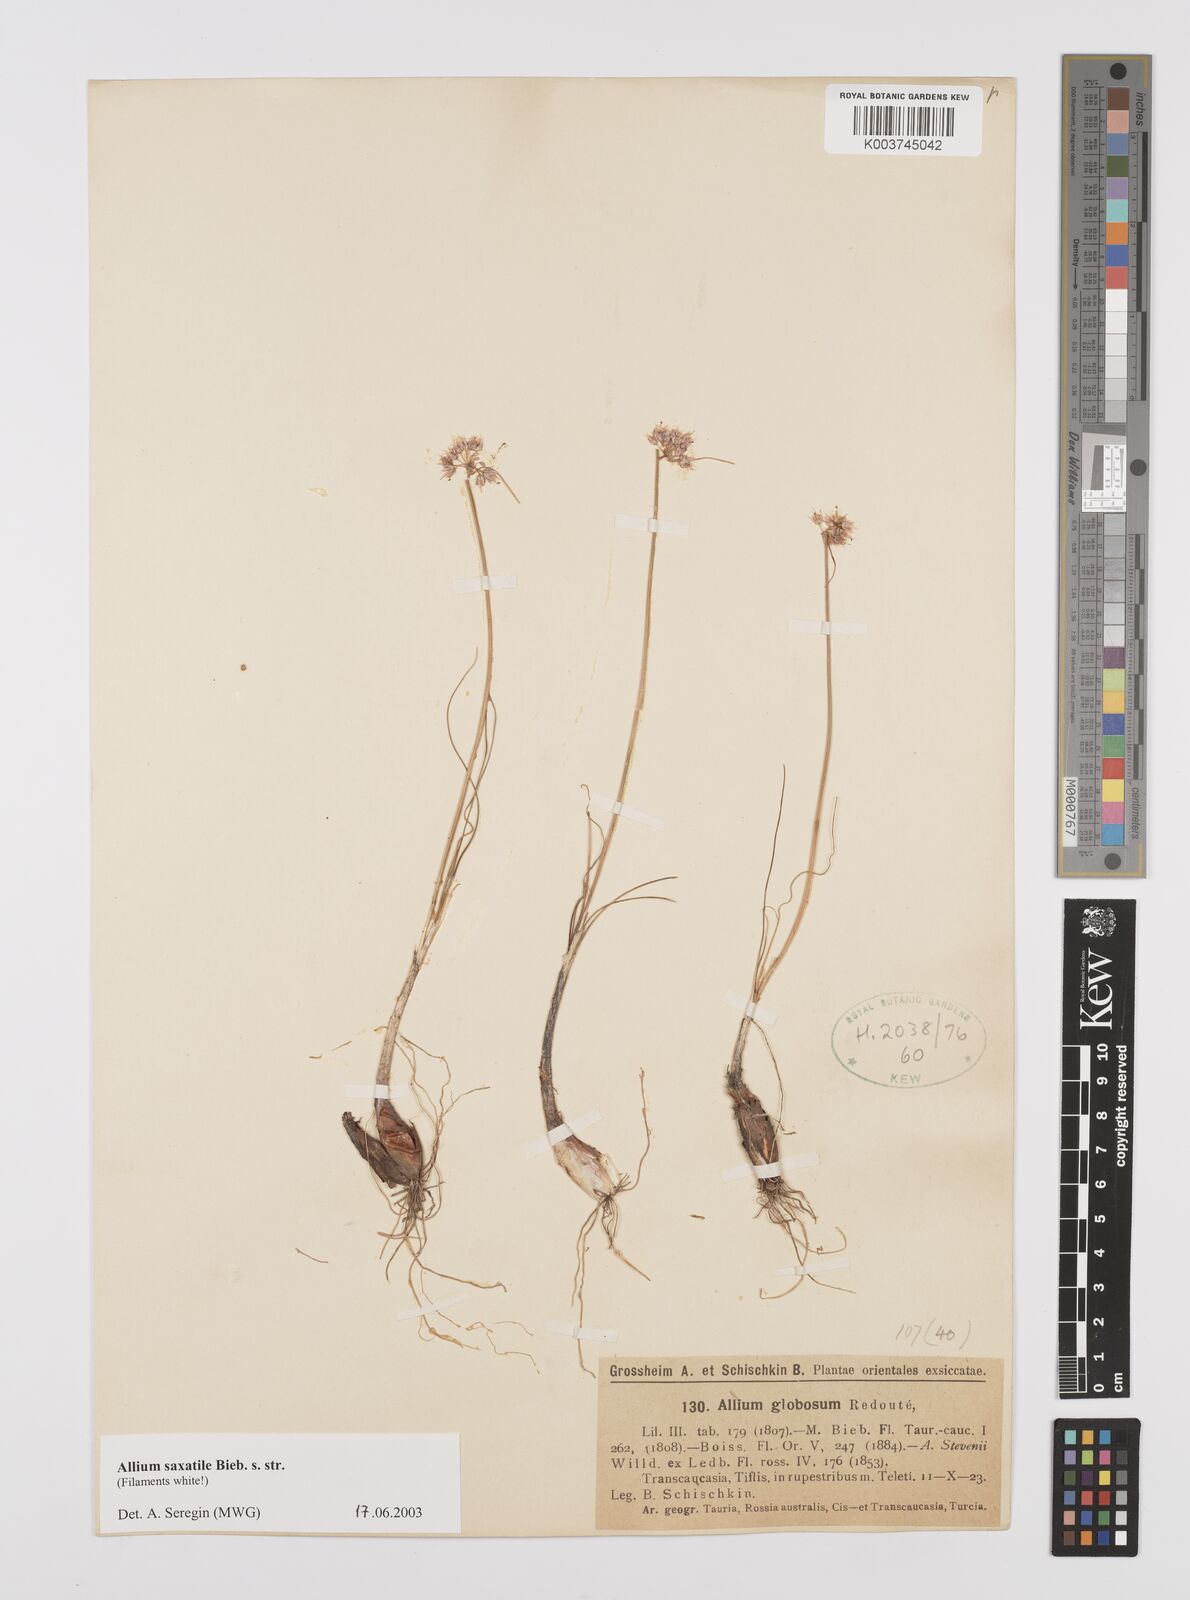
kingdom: Plantae
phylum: Tracheophyta
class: Liliopsida
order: Asparagales
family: Amaryllidaceae
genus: Allium
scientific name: Allium saxatile
